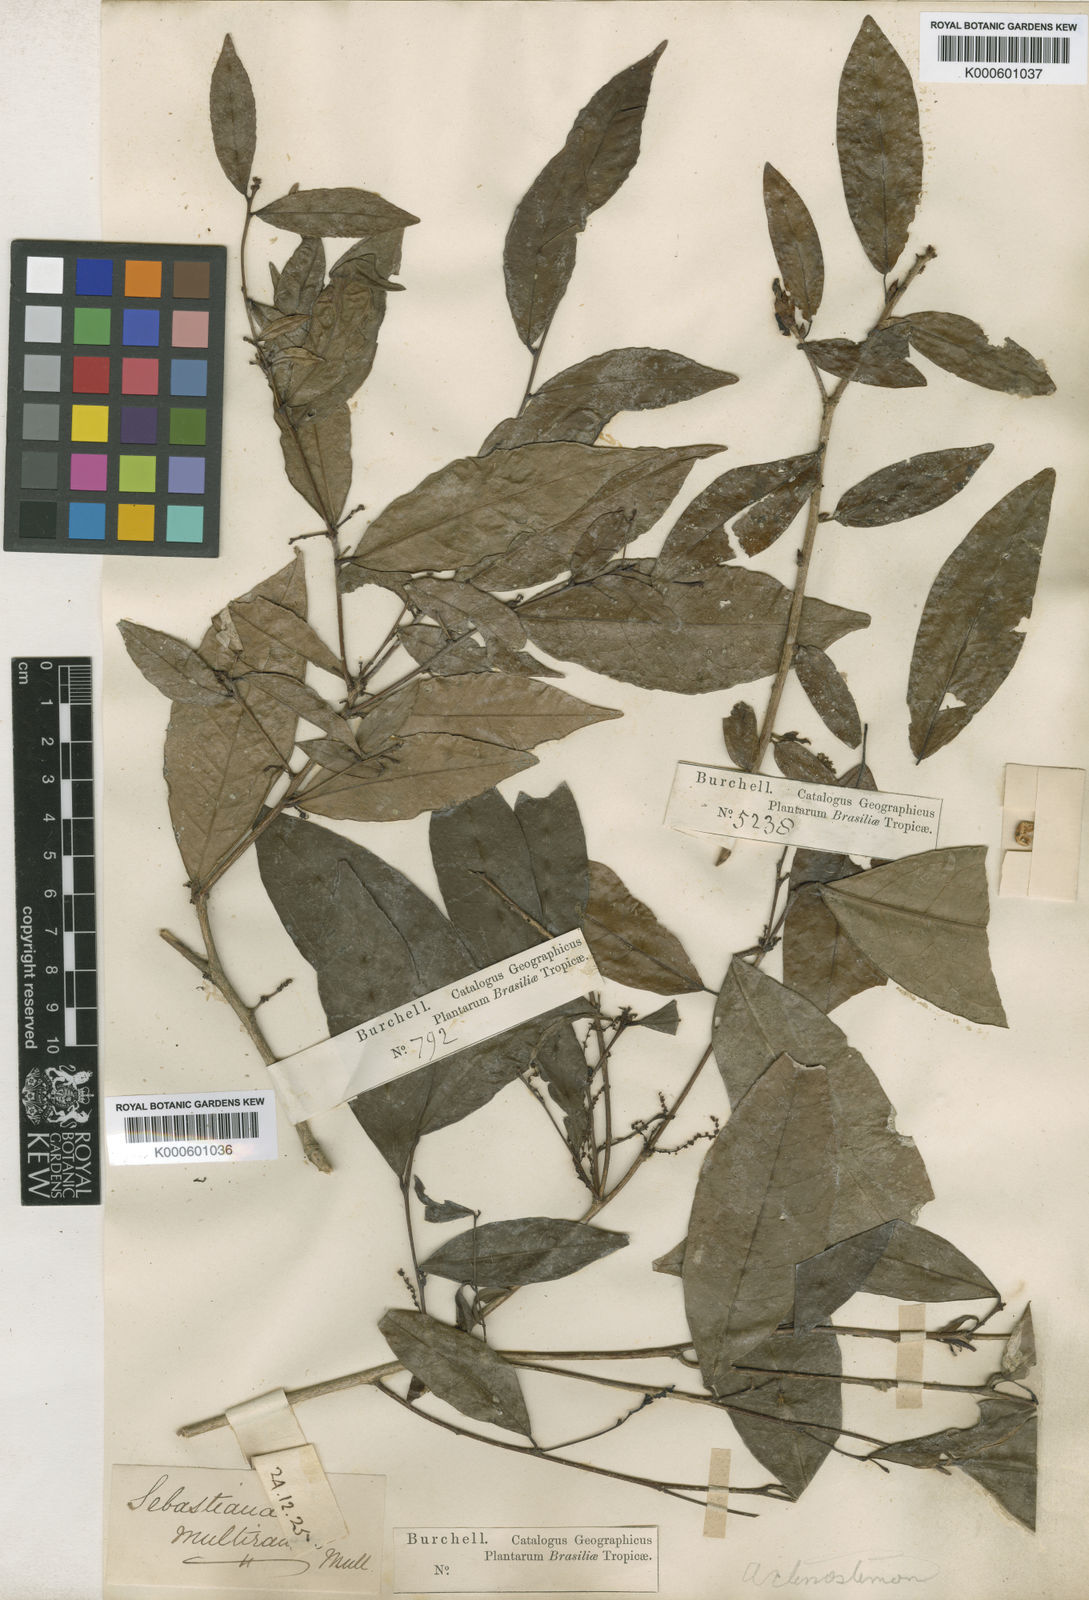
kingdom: Plantae
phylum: Tracheophyta
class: Magnoliopsida
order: Malpighiales
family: Euphorbiaceae
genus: Actinostemon
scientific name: Actinostemon schomburgkii
